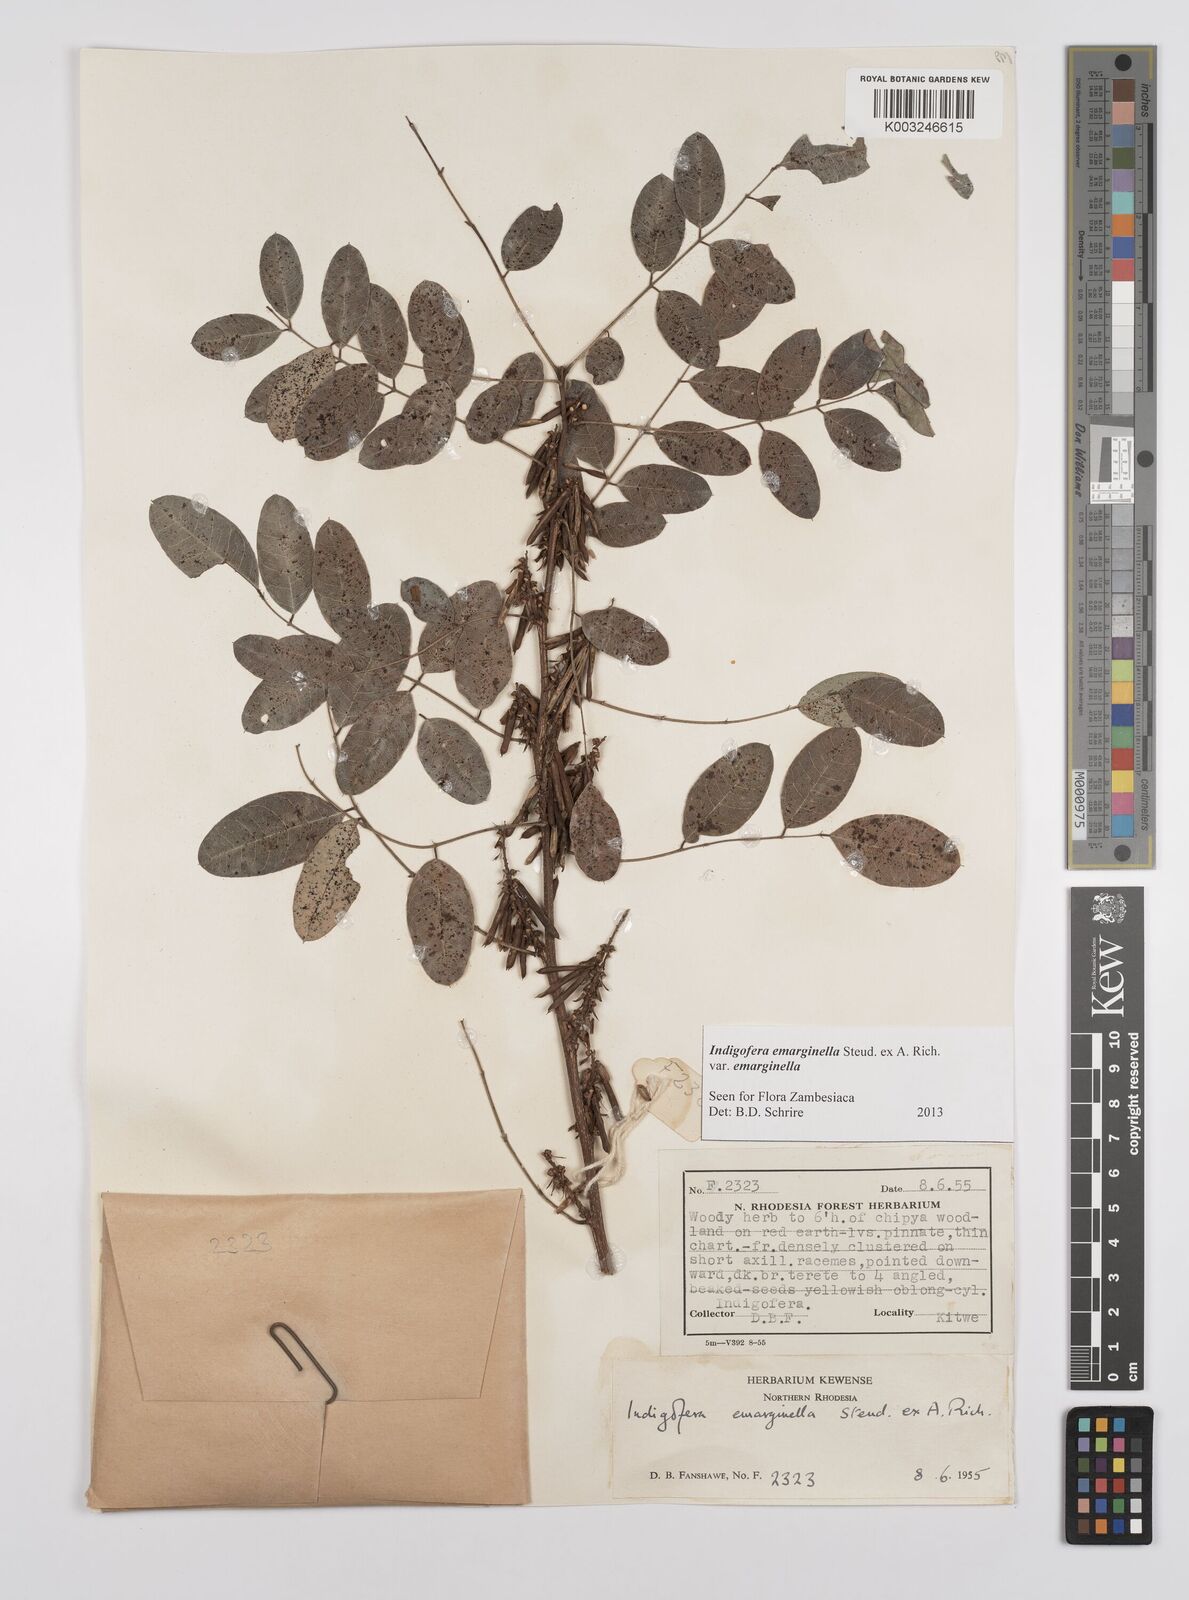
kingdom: Plantae
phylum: Tracheophyta
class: Magnoliopsida
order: Fabales
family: Fabaceae
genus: Indigofera
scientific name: Indigofera emarginella
